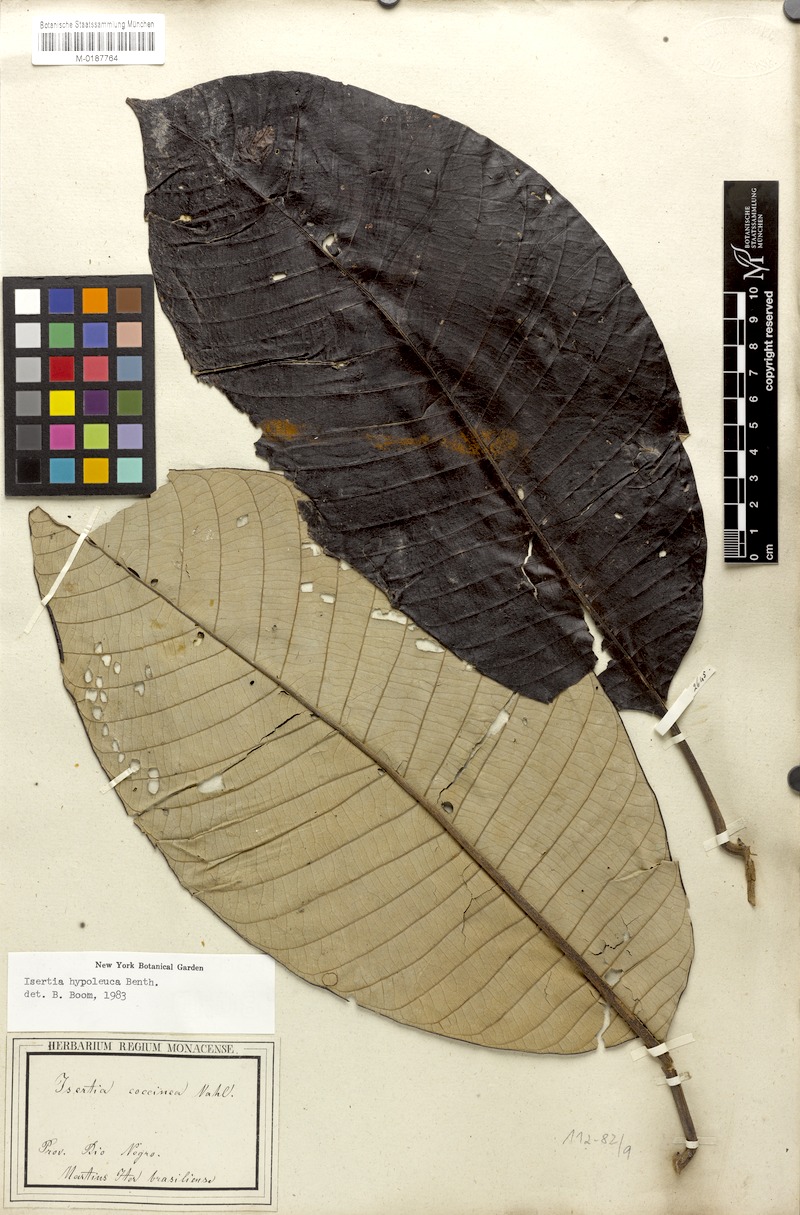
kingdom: Plantae
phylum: Tracheophyta
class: Magnoliopsida
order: Gentianales
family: Rubiaceae
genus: Isertia
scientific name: Isertia hypoleuca
